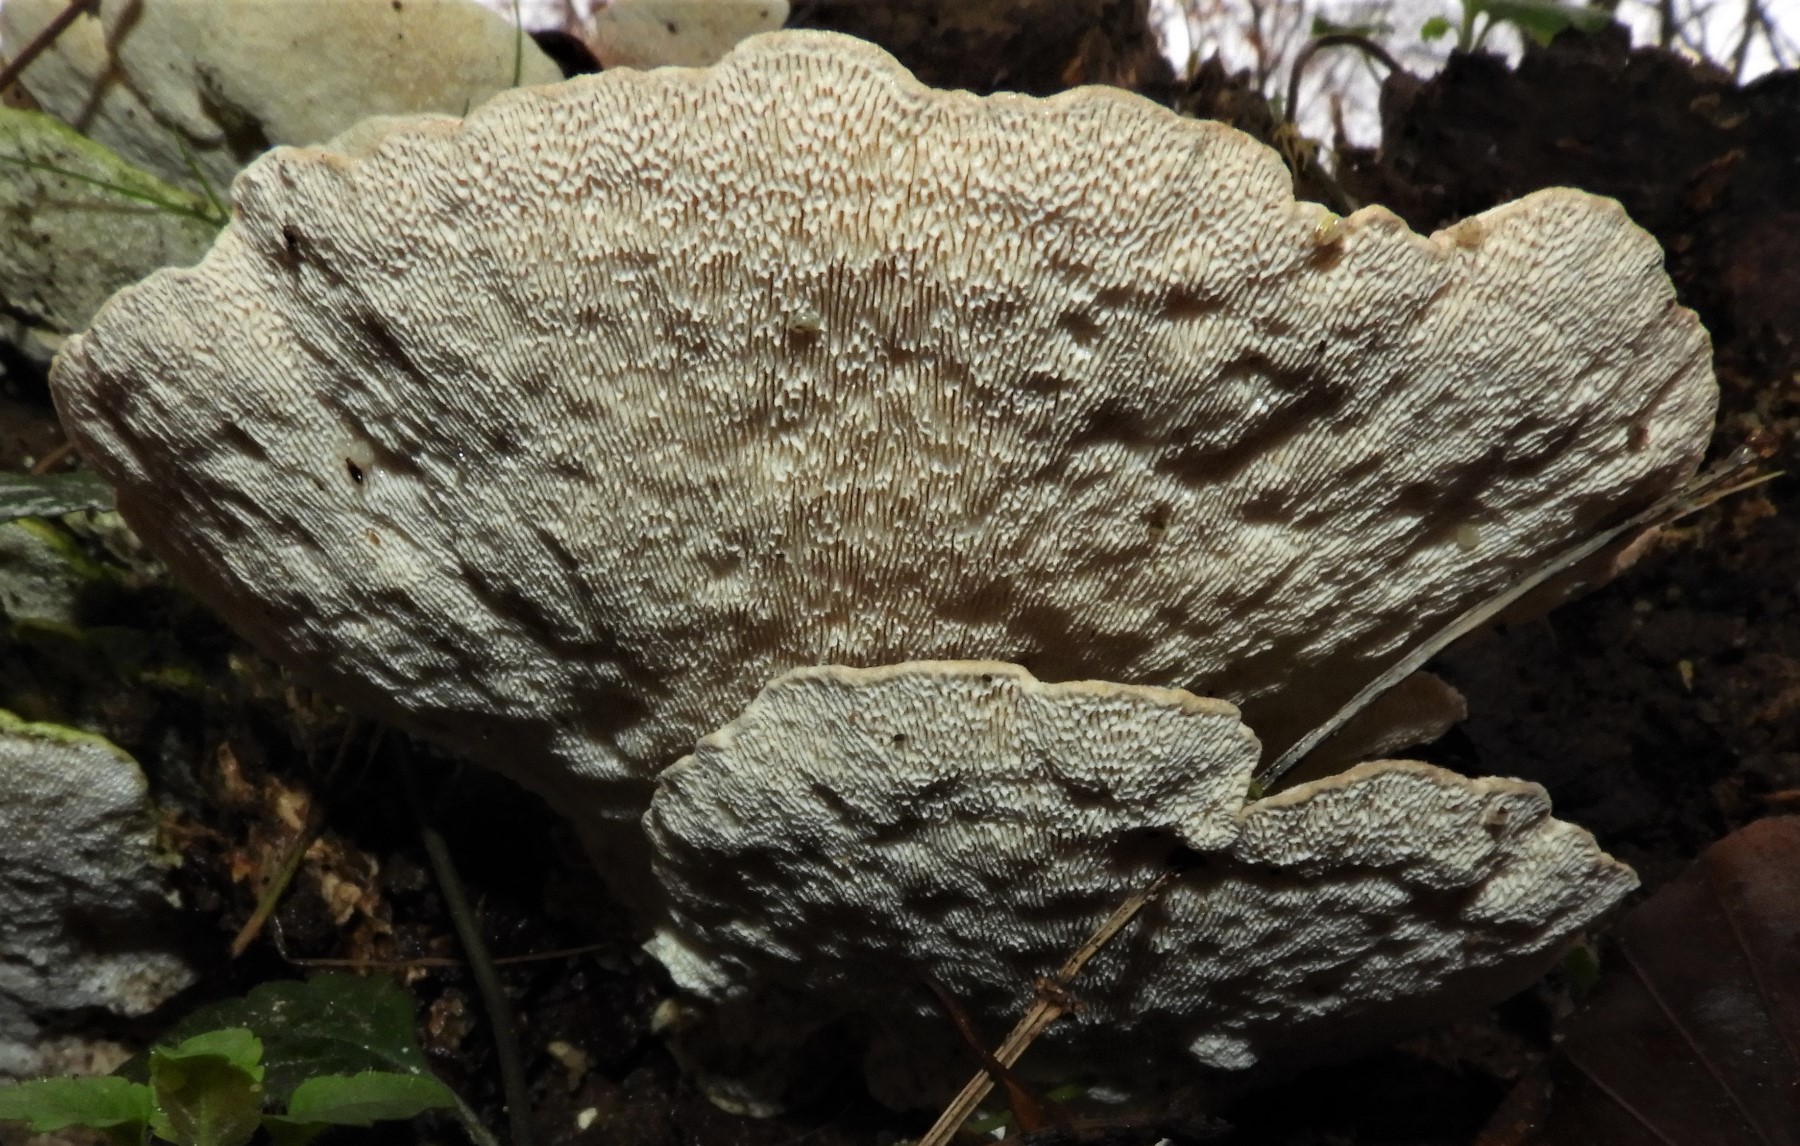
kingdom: Fungi
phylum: Basidiomycota
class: Agaricomycetes
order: Polyporales
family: Polyporaceae
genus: Trametes
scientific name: Trametes hirsuta
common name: håret læderporesvamp
